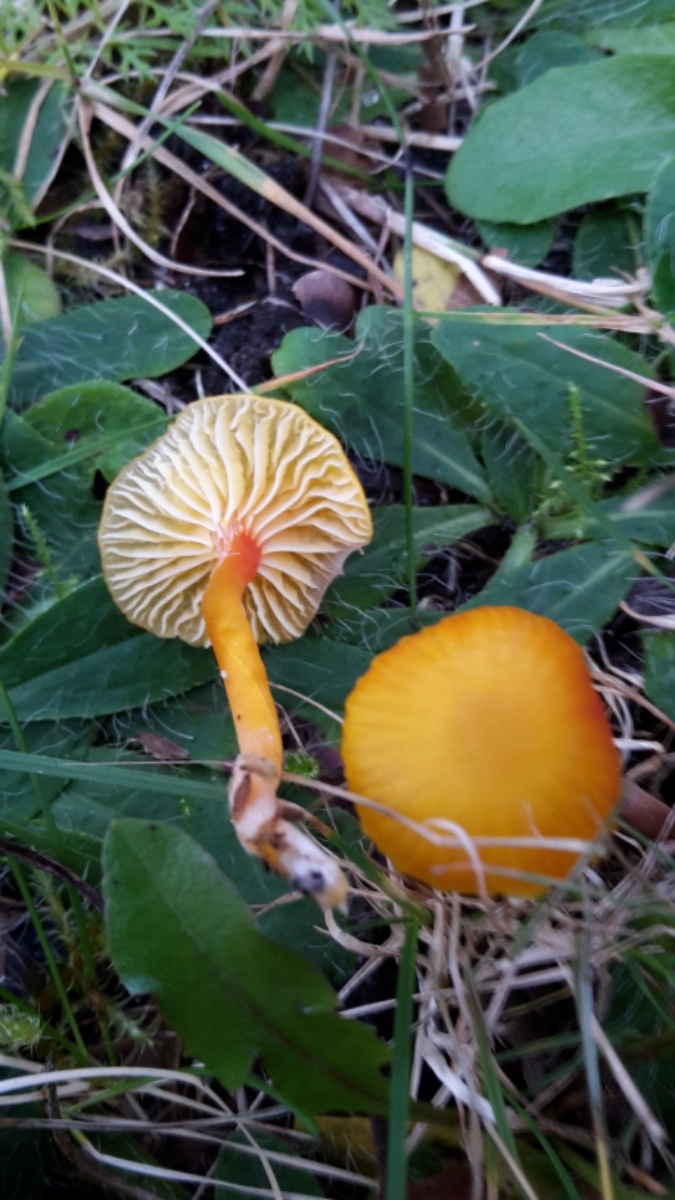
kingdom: Fungi
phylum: Basidiomycota
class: Agaricomycetes
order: Agaricales
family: Hygrophoraceae
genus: Hygrocybe
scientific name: Hygrocybe insipida
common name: liden vokshat
